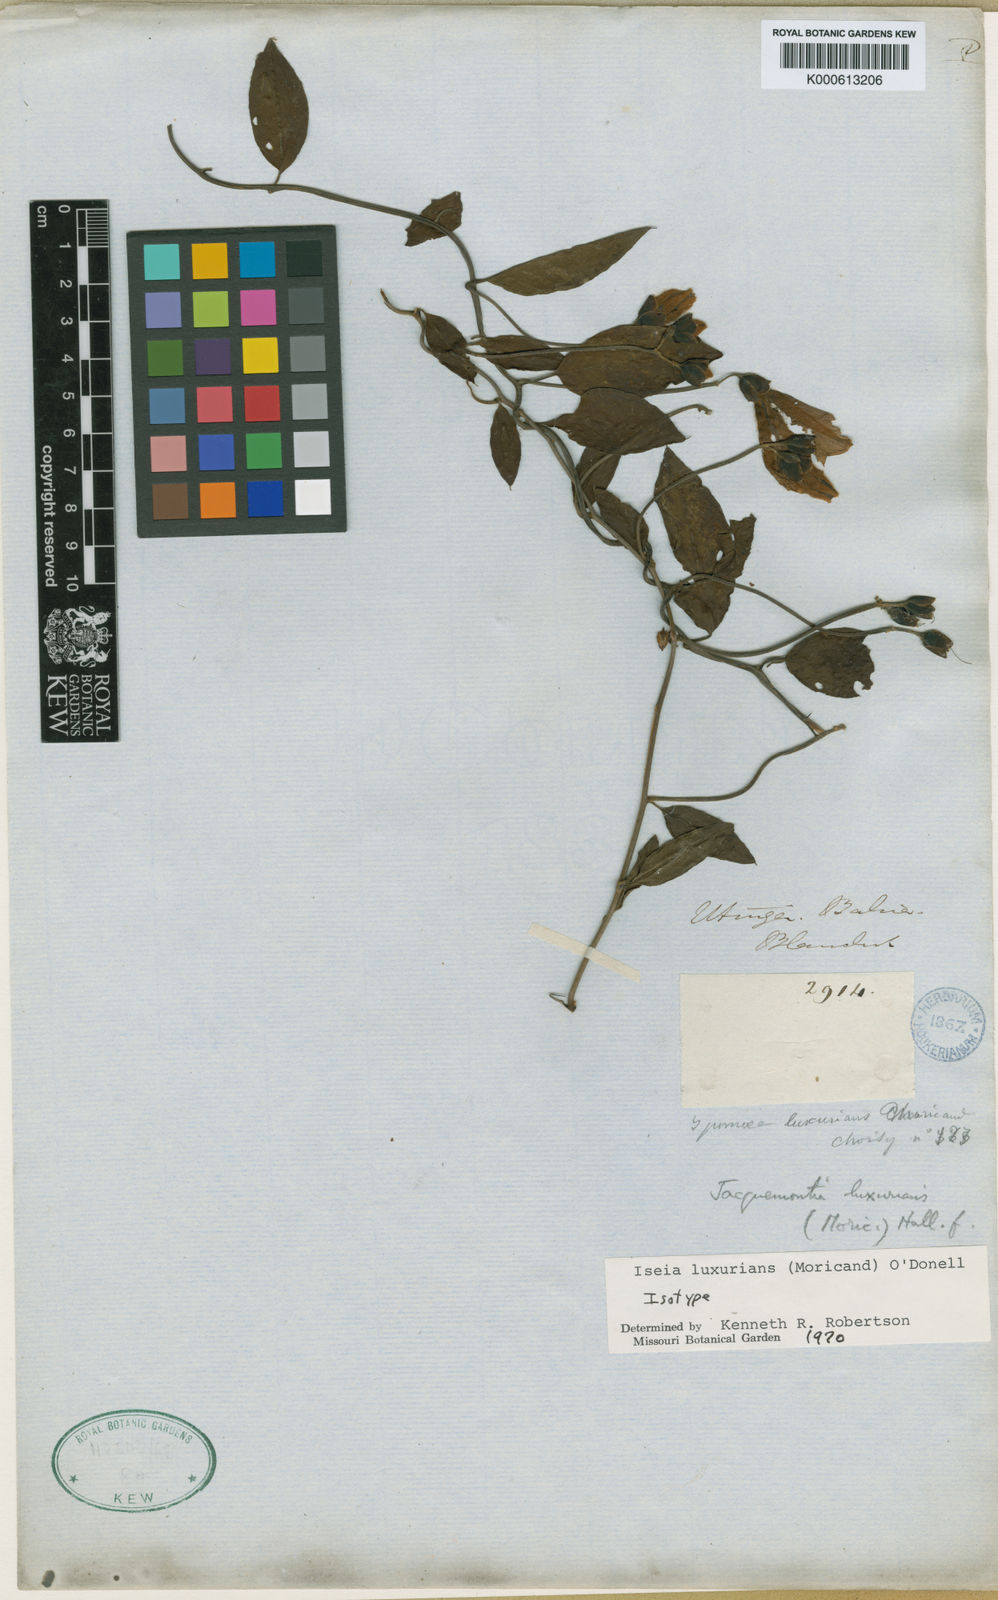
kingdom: Plantae
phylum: Tracheophyta
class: Magnoliopsida
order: Solanales
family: Convolvulaceae
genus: Aniseia
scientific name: Aniseia luxurians
